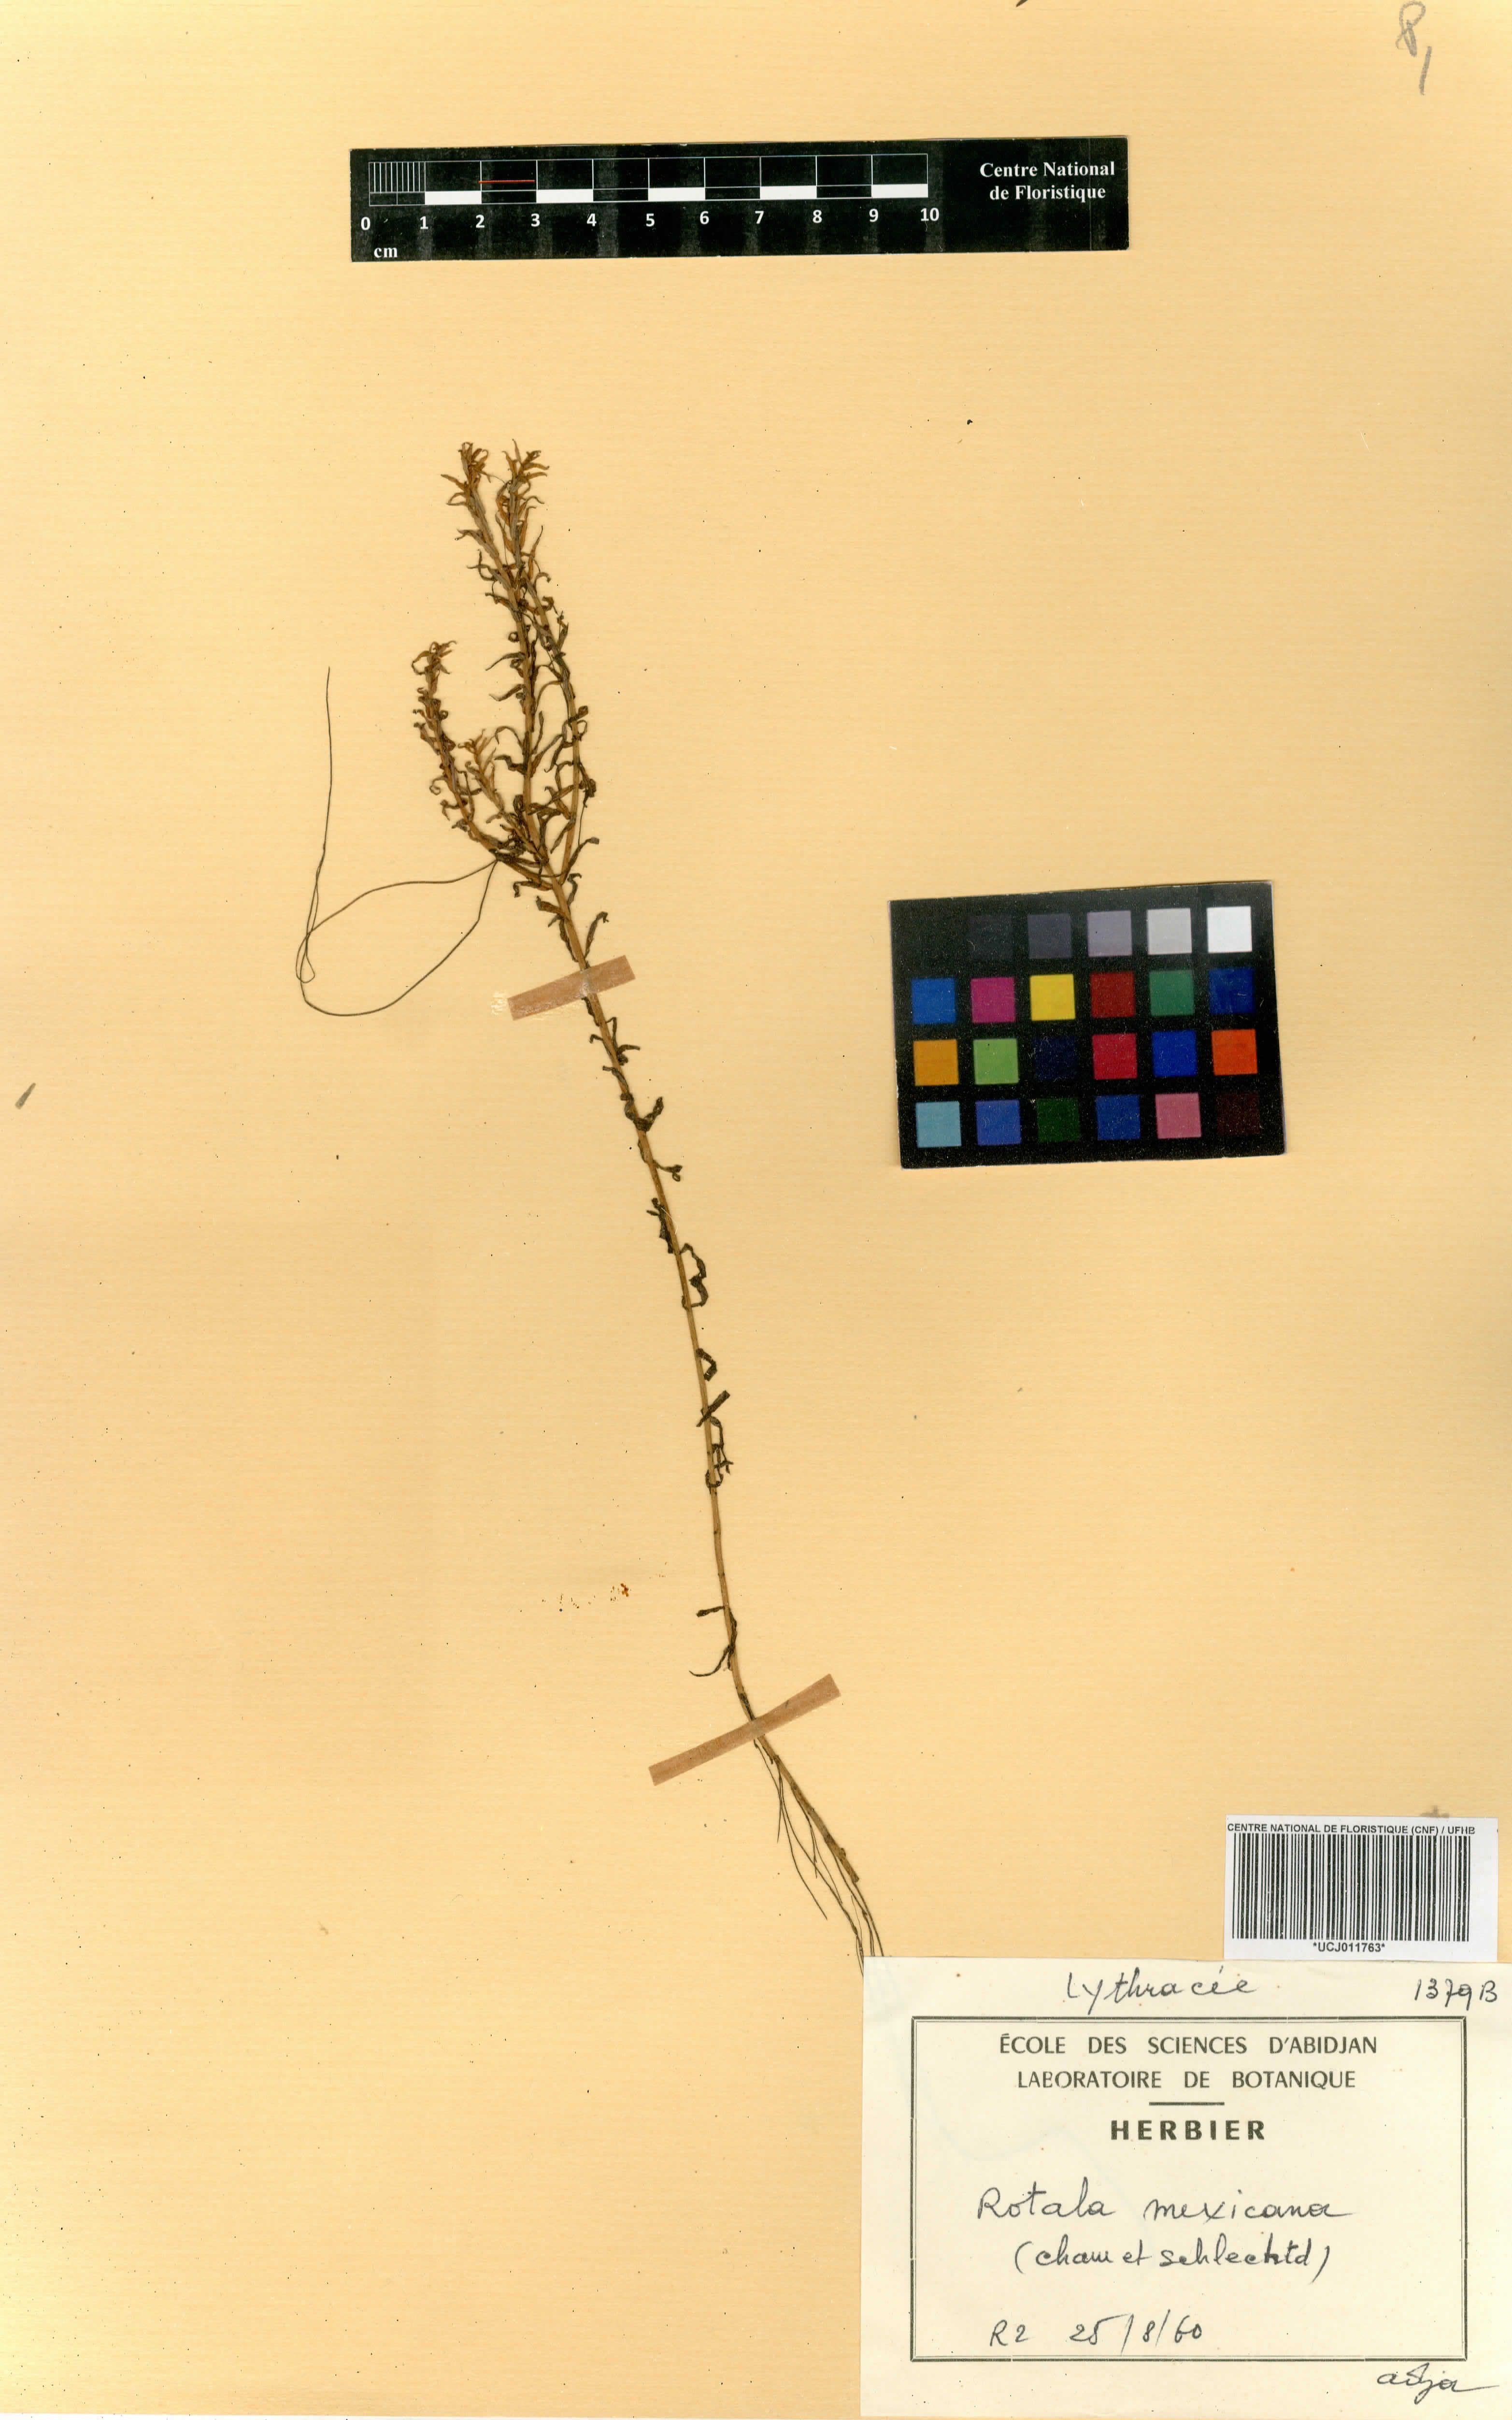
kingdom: Plantae
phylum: Tracheophyta
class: Magnoliopsida
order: Myrtales
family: Lythraceae
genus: Rotala
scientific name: Rotala mexicana
